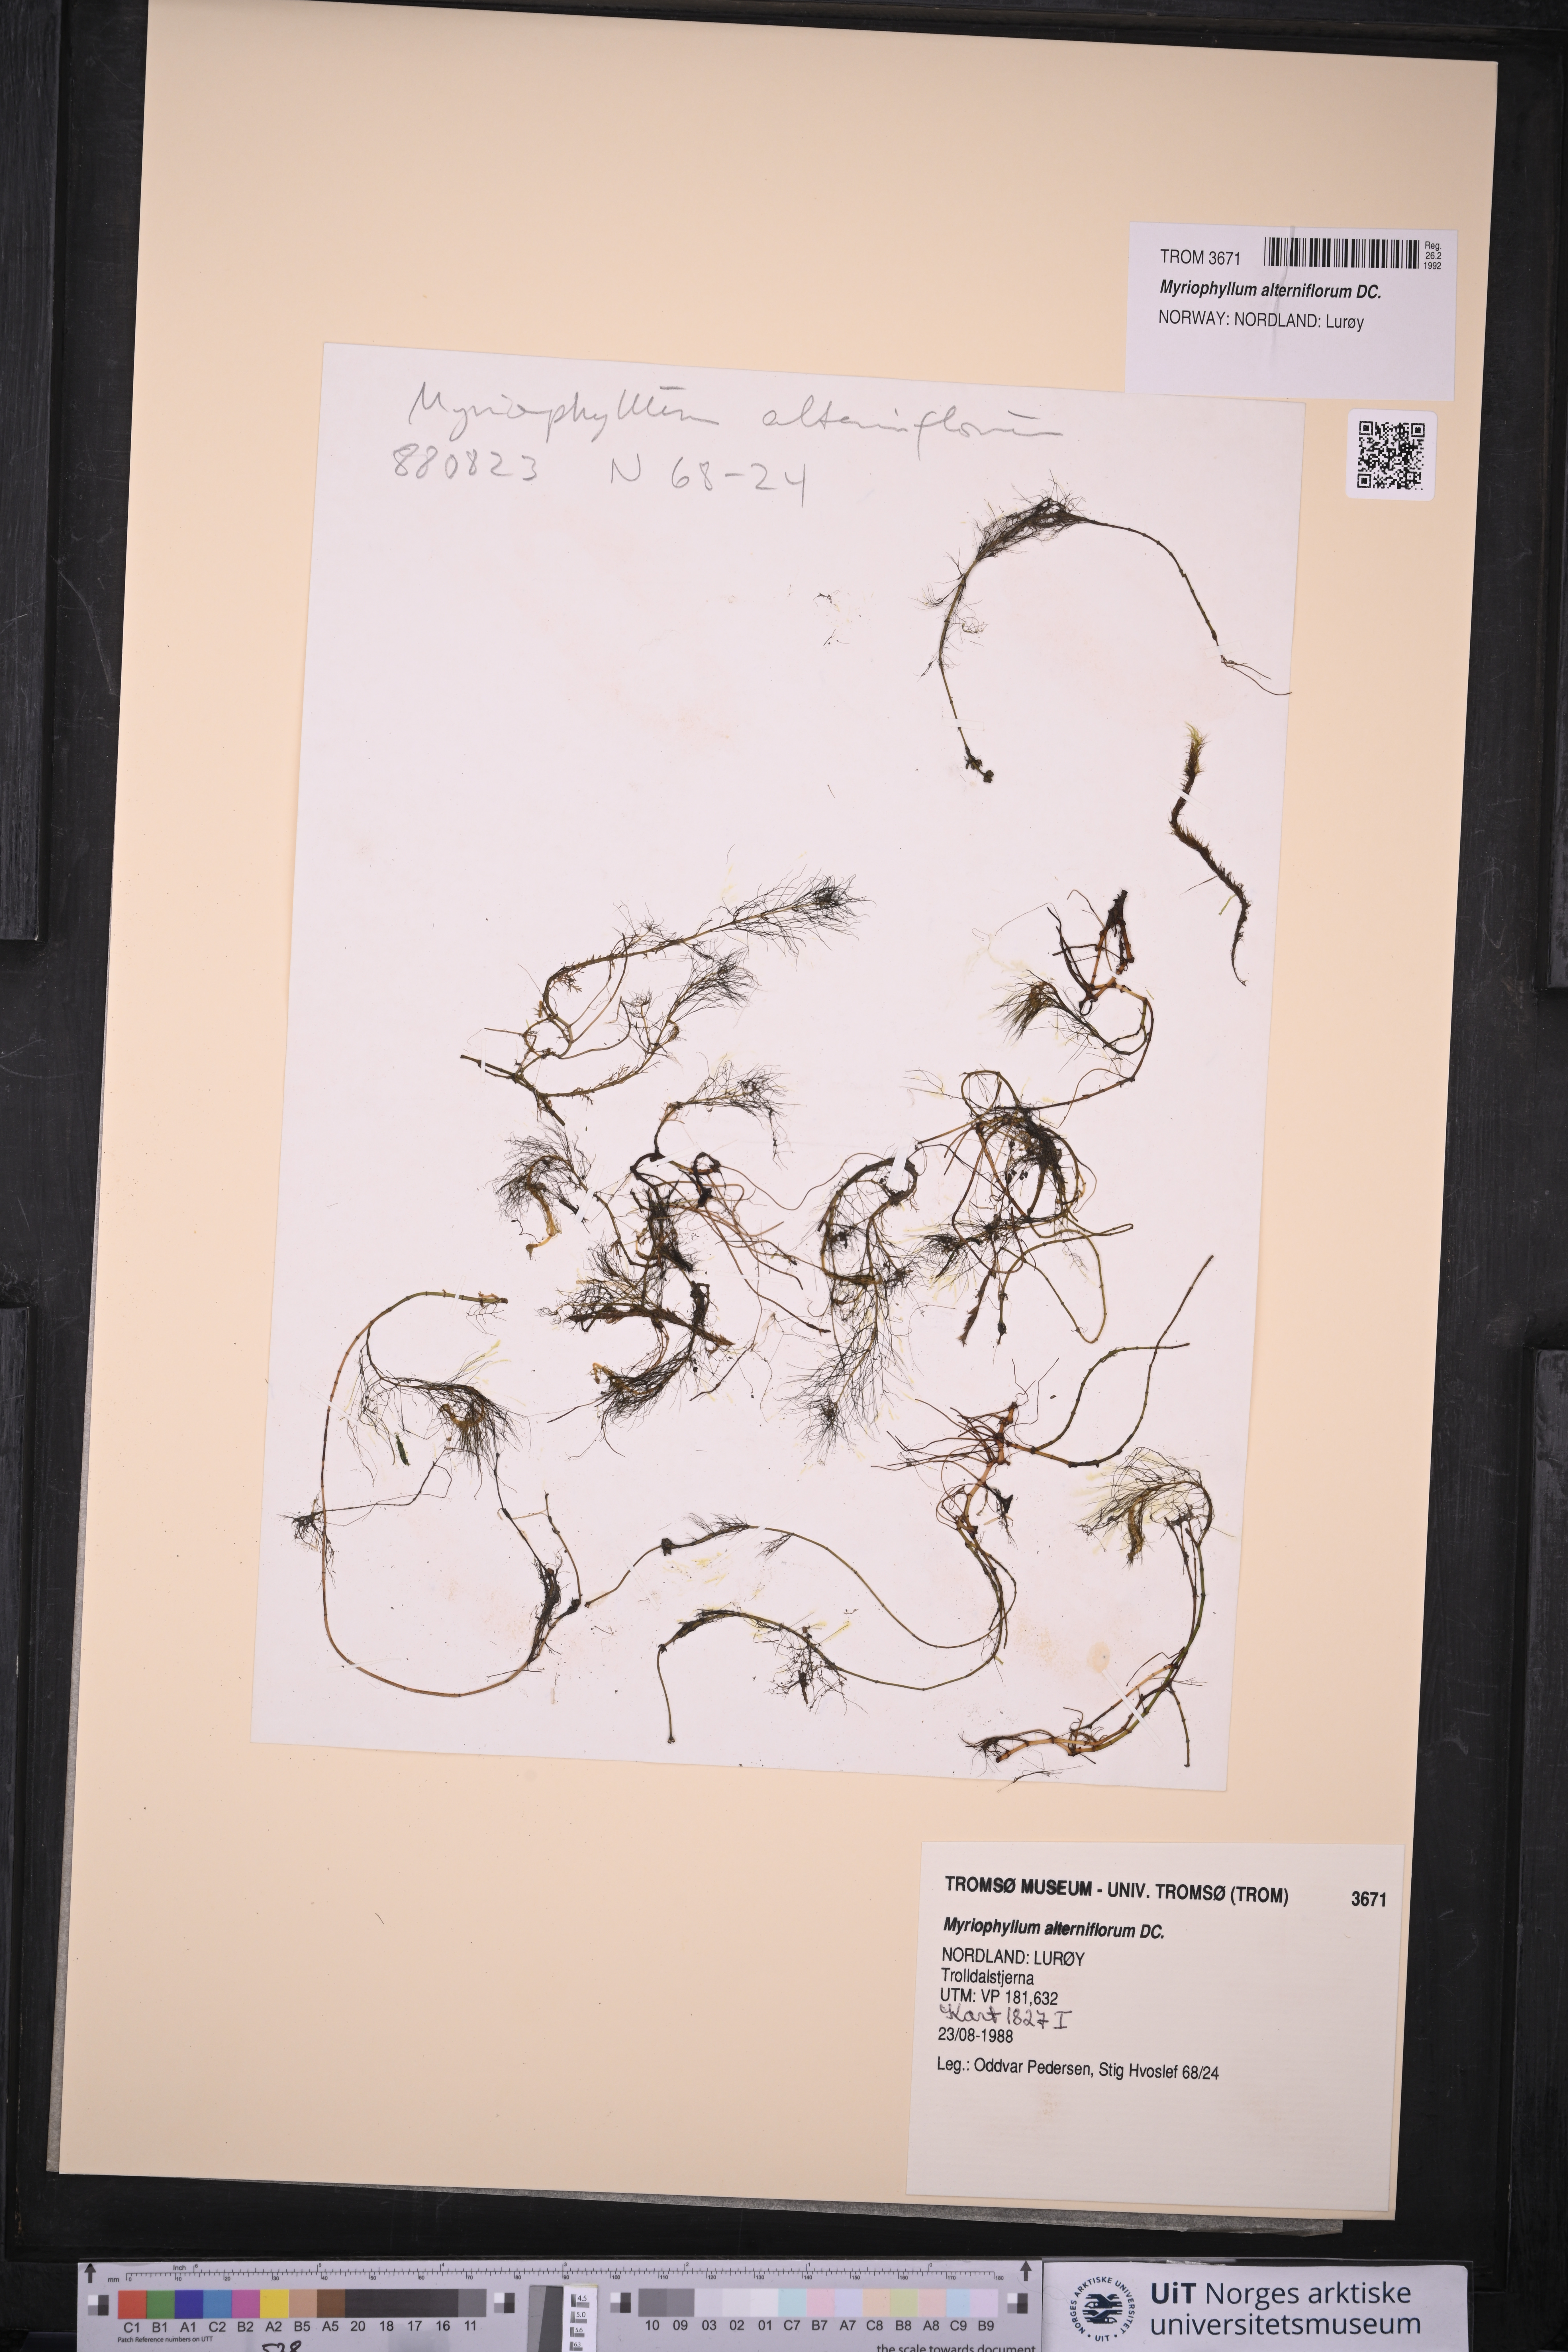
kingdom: Plantae
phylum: Tracheophyta
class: Magnoliopsida
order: Saxifragales
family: Haloragaceae
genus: Myriophyllum
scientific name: Myriophyllum alterniflorum
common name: Alternate water-milfoil
